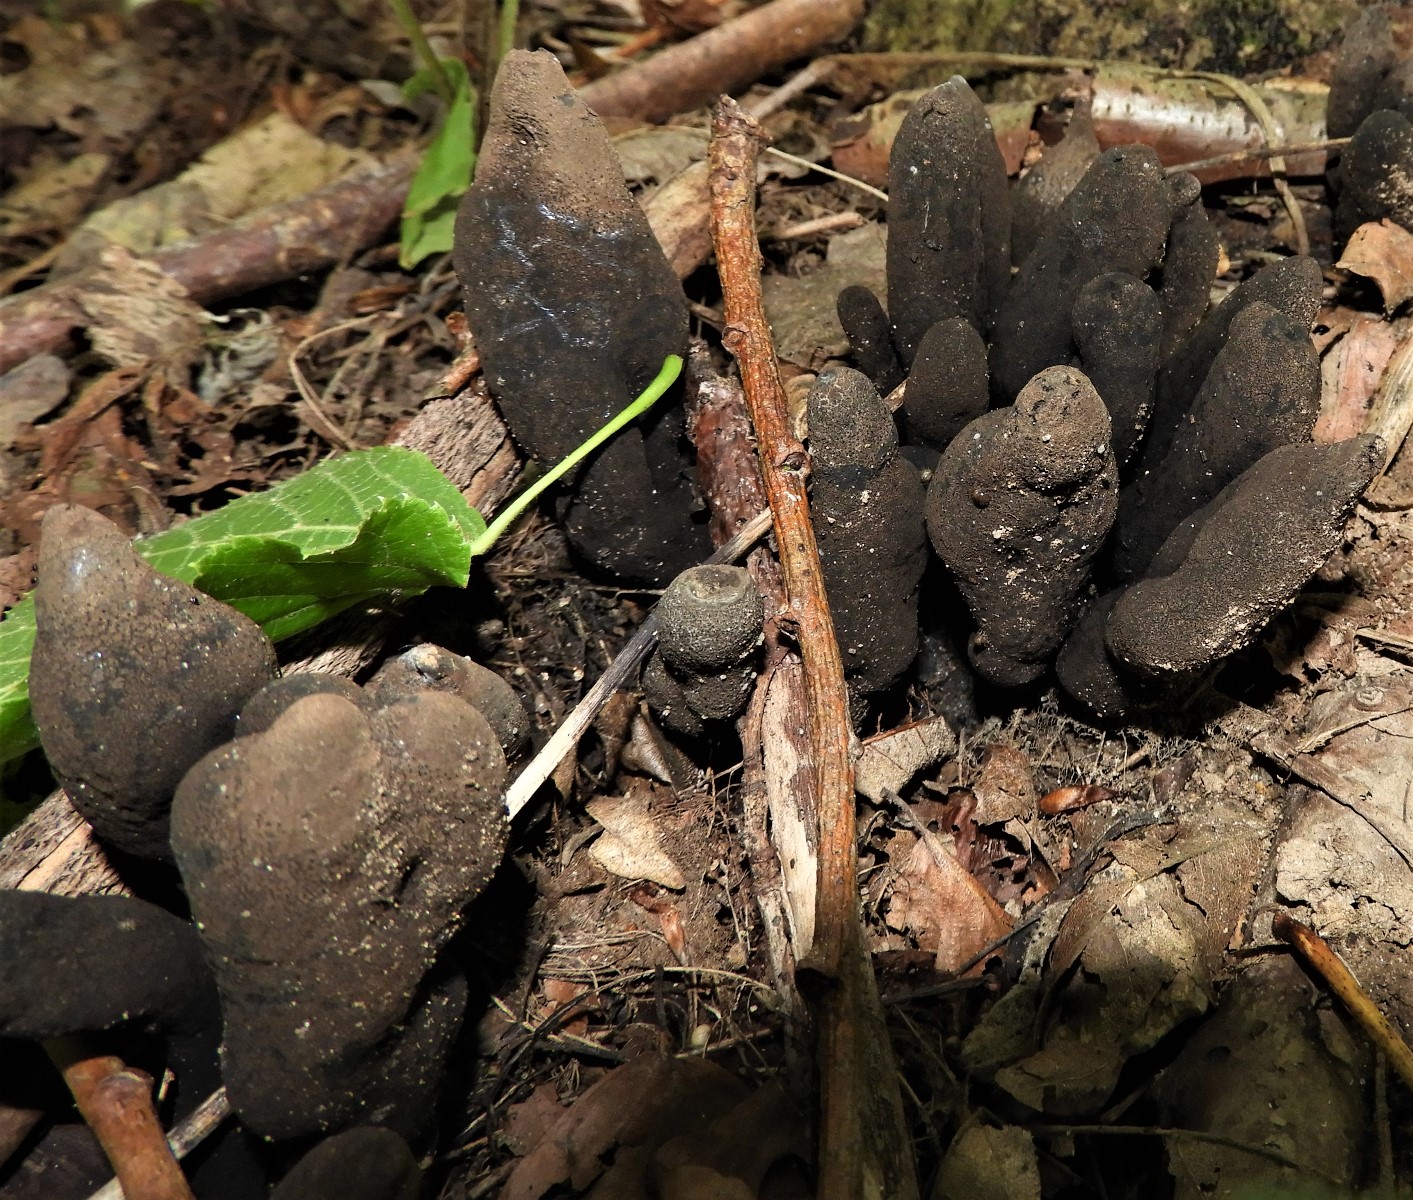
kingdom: Fungi
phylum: Ascomycota
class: Sordariomycetes
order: Xylariales
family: Xylariaceae
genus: Xylaria
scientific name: Xylaria polymorpha
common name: kølle-stødsvamp
